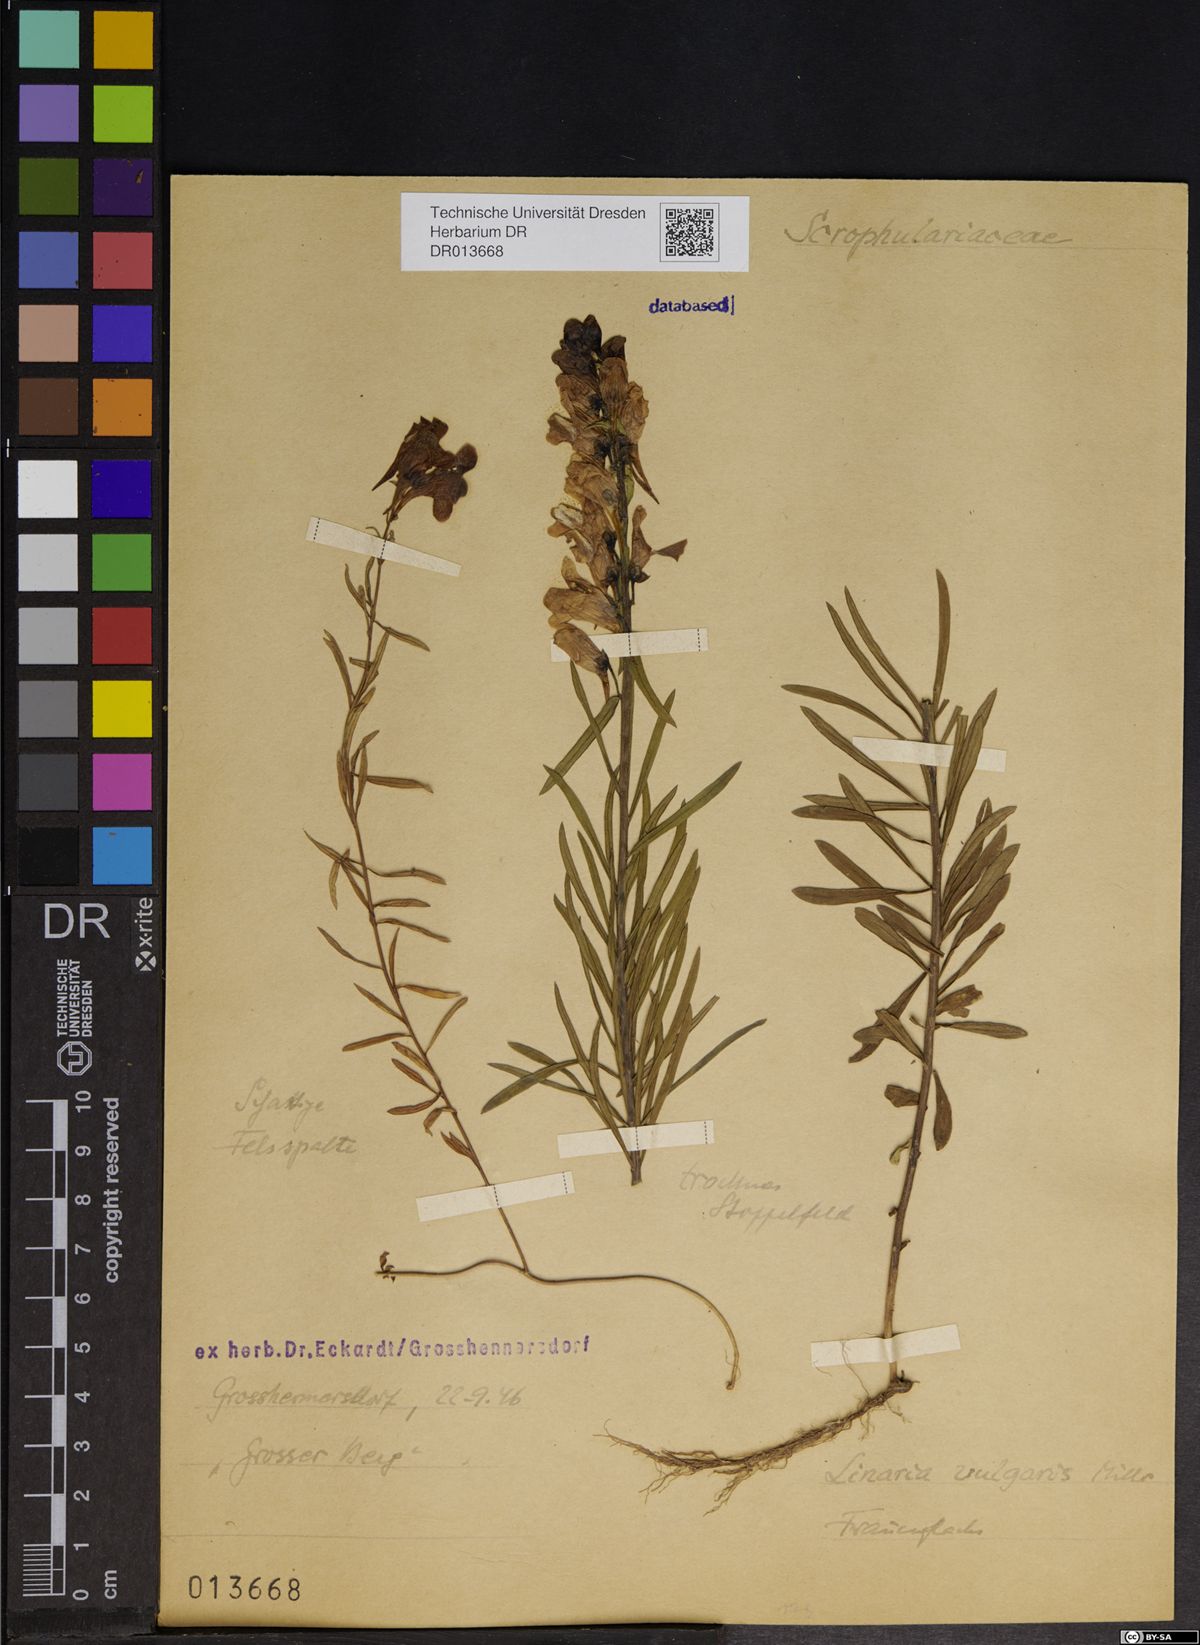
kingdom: Plantae
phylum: Tracheophyta
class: Magnoliopsida
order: Lamiales
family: Plantaginaceae
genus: Linaria
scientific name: Linaria vulgaris
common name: Butter and eggs
